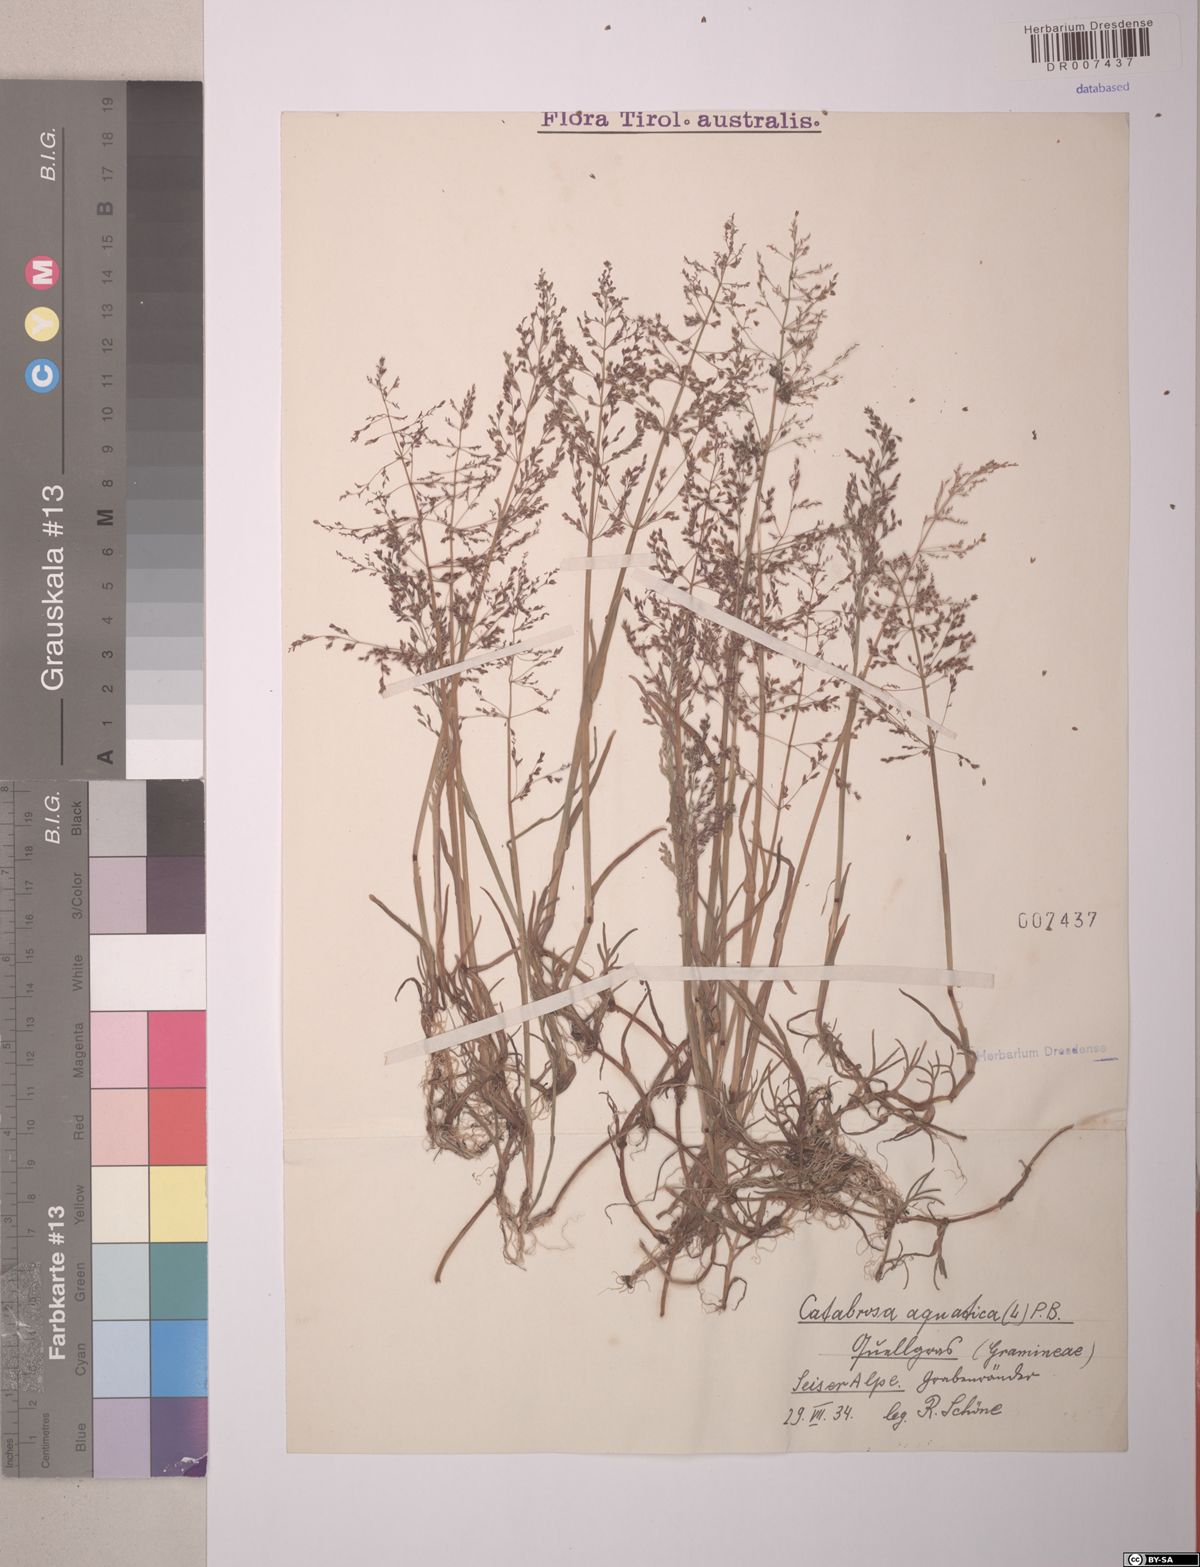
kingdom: Plantae
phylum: Tracheophyta
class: Liliopsida
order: Poales
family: Poaceae
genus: Catabrosa
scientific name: Catabrosa aquatica
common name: Whorl-grass
